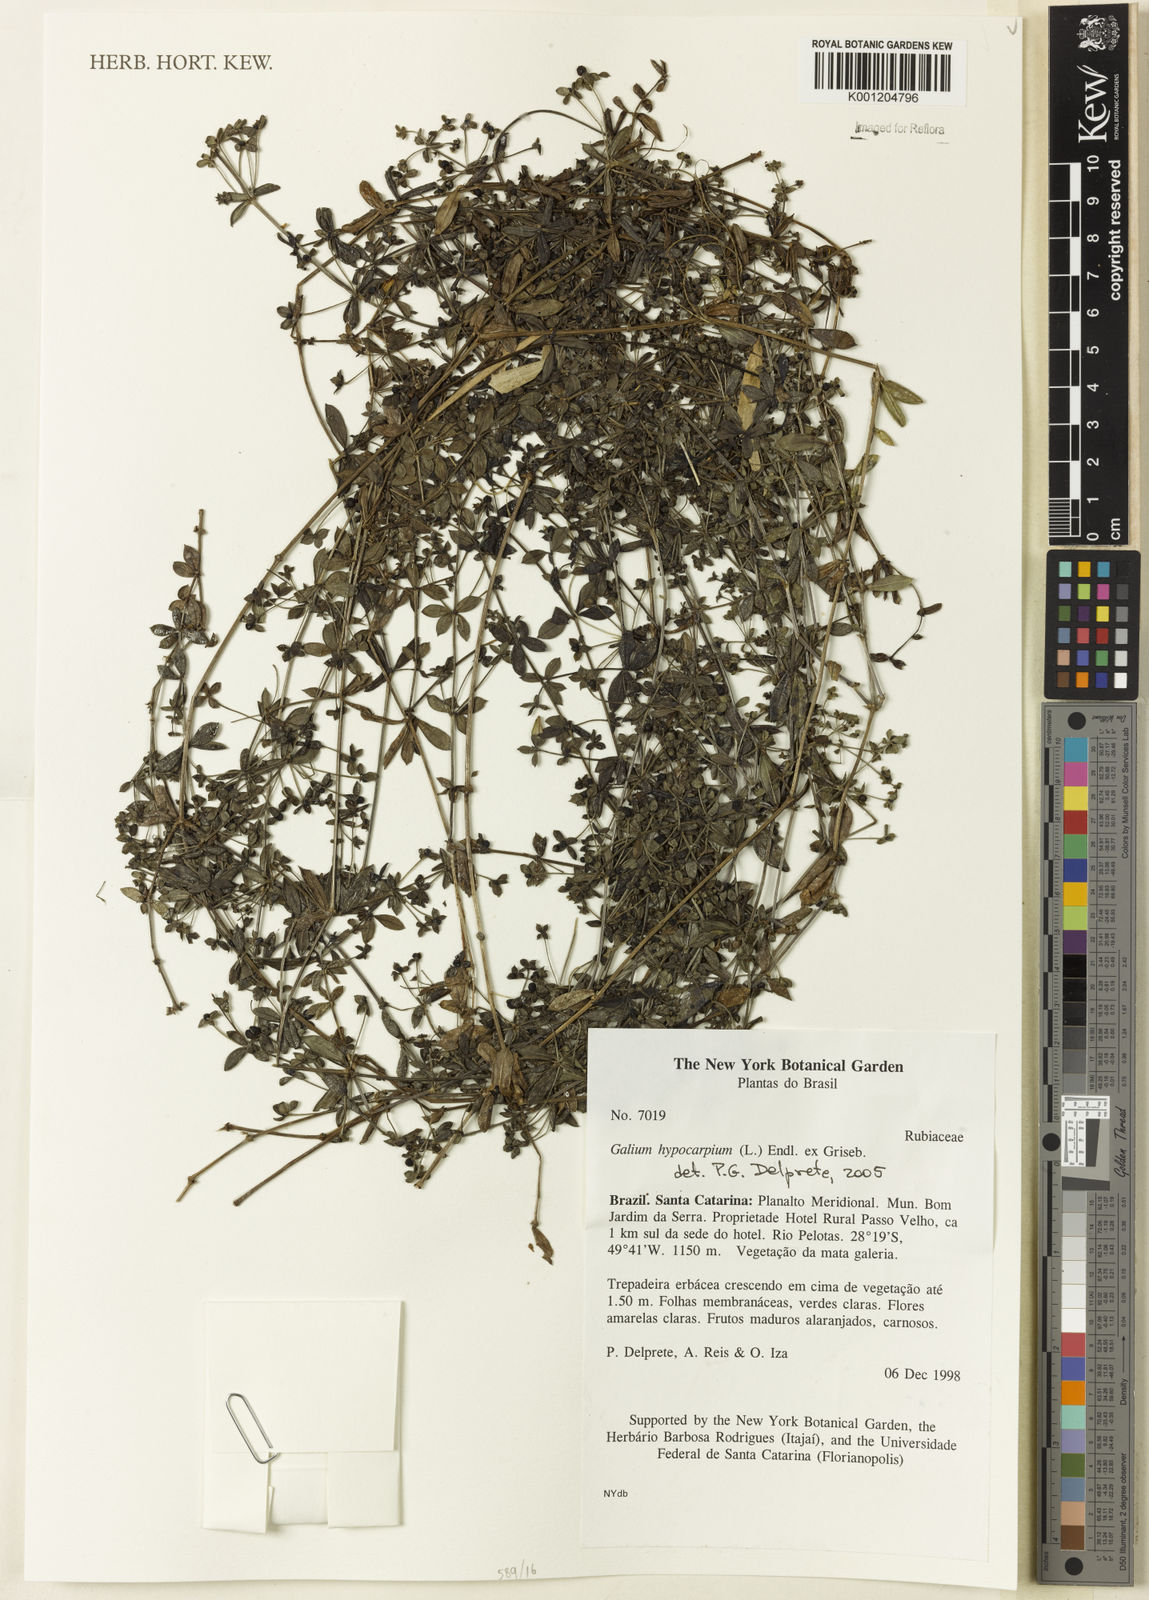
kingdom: Plantae
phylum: Tracheophyta
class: Magnoliopsida
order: Gentianales
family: Rubiaceae
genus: Galium
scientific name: Galium hypocarpium
